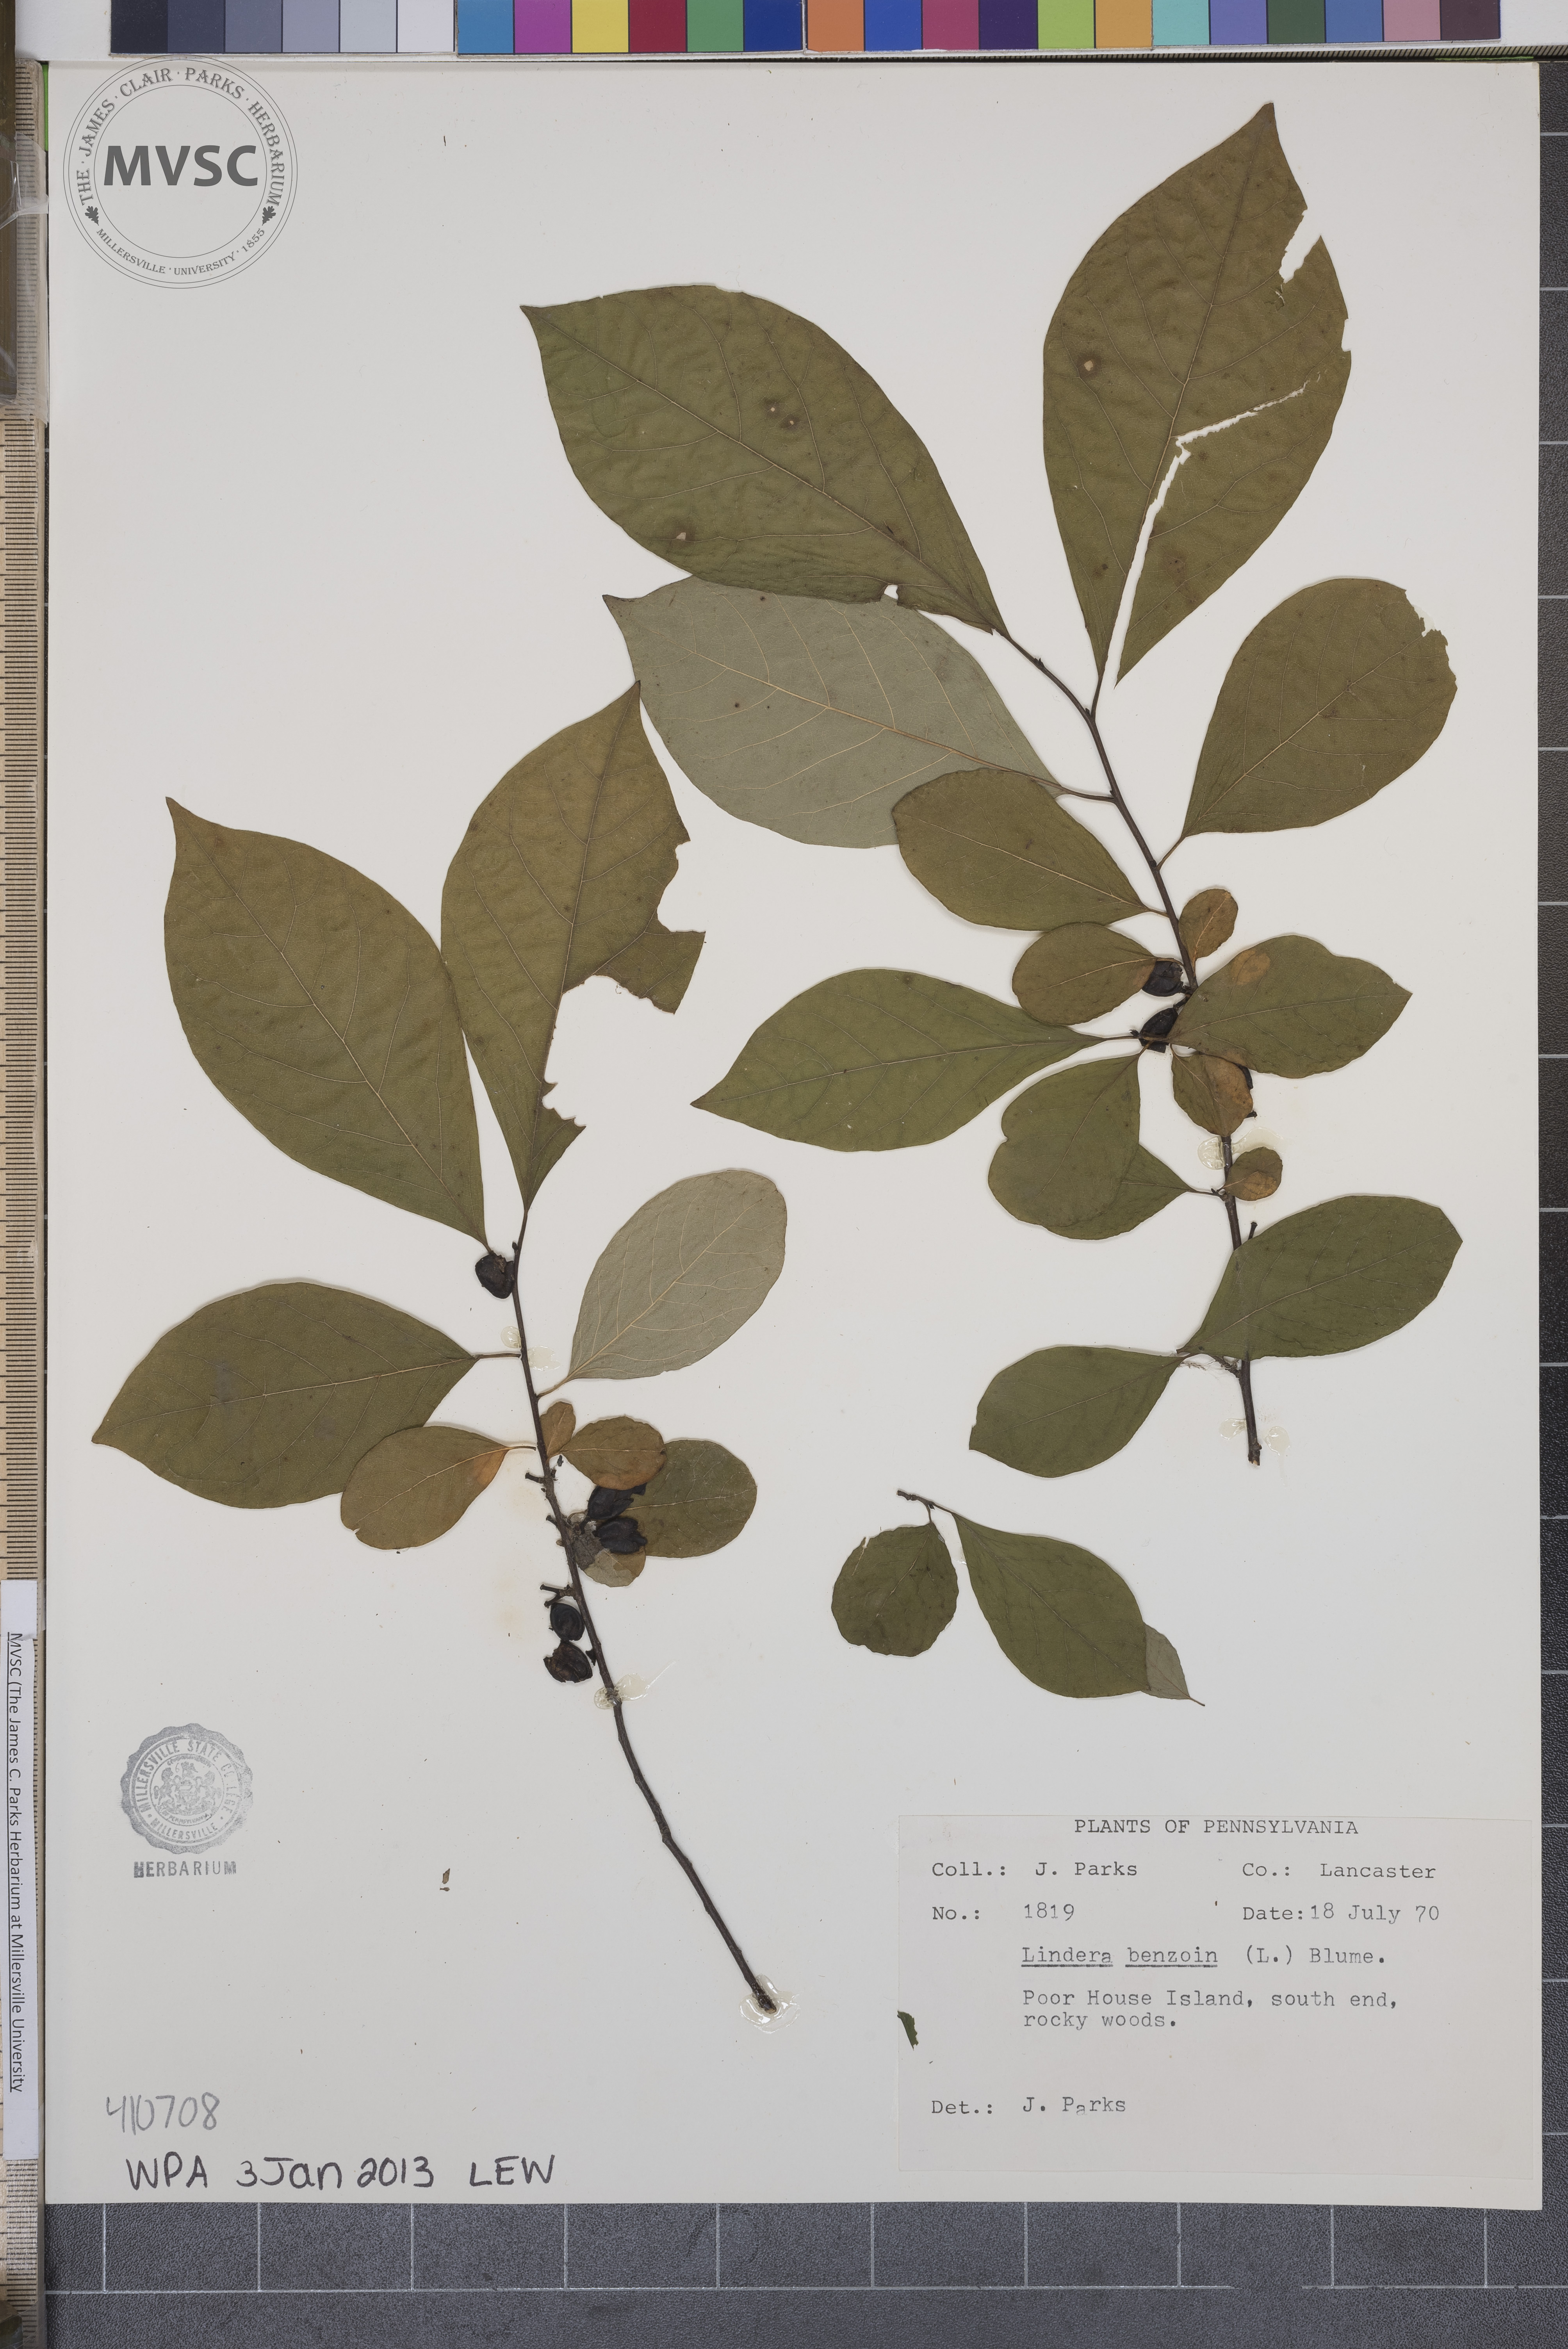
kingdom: Plantae
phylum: Tracheophyta
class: Magnoliopsida
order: Laurales
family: Lauraceae
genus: Lindera
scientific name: Lindera benzoin
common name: spicebush
